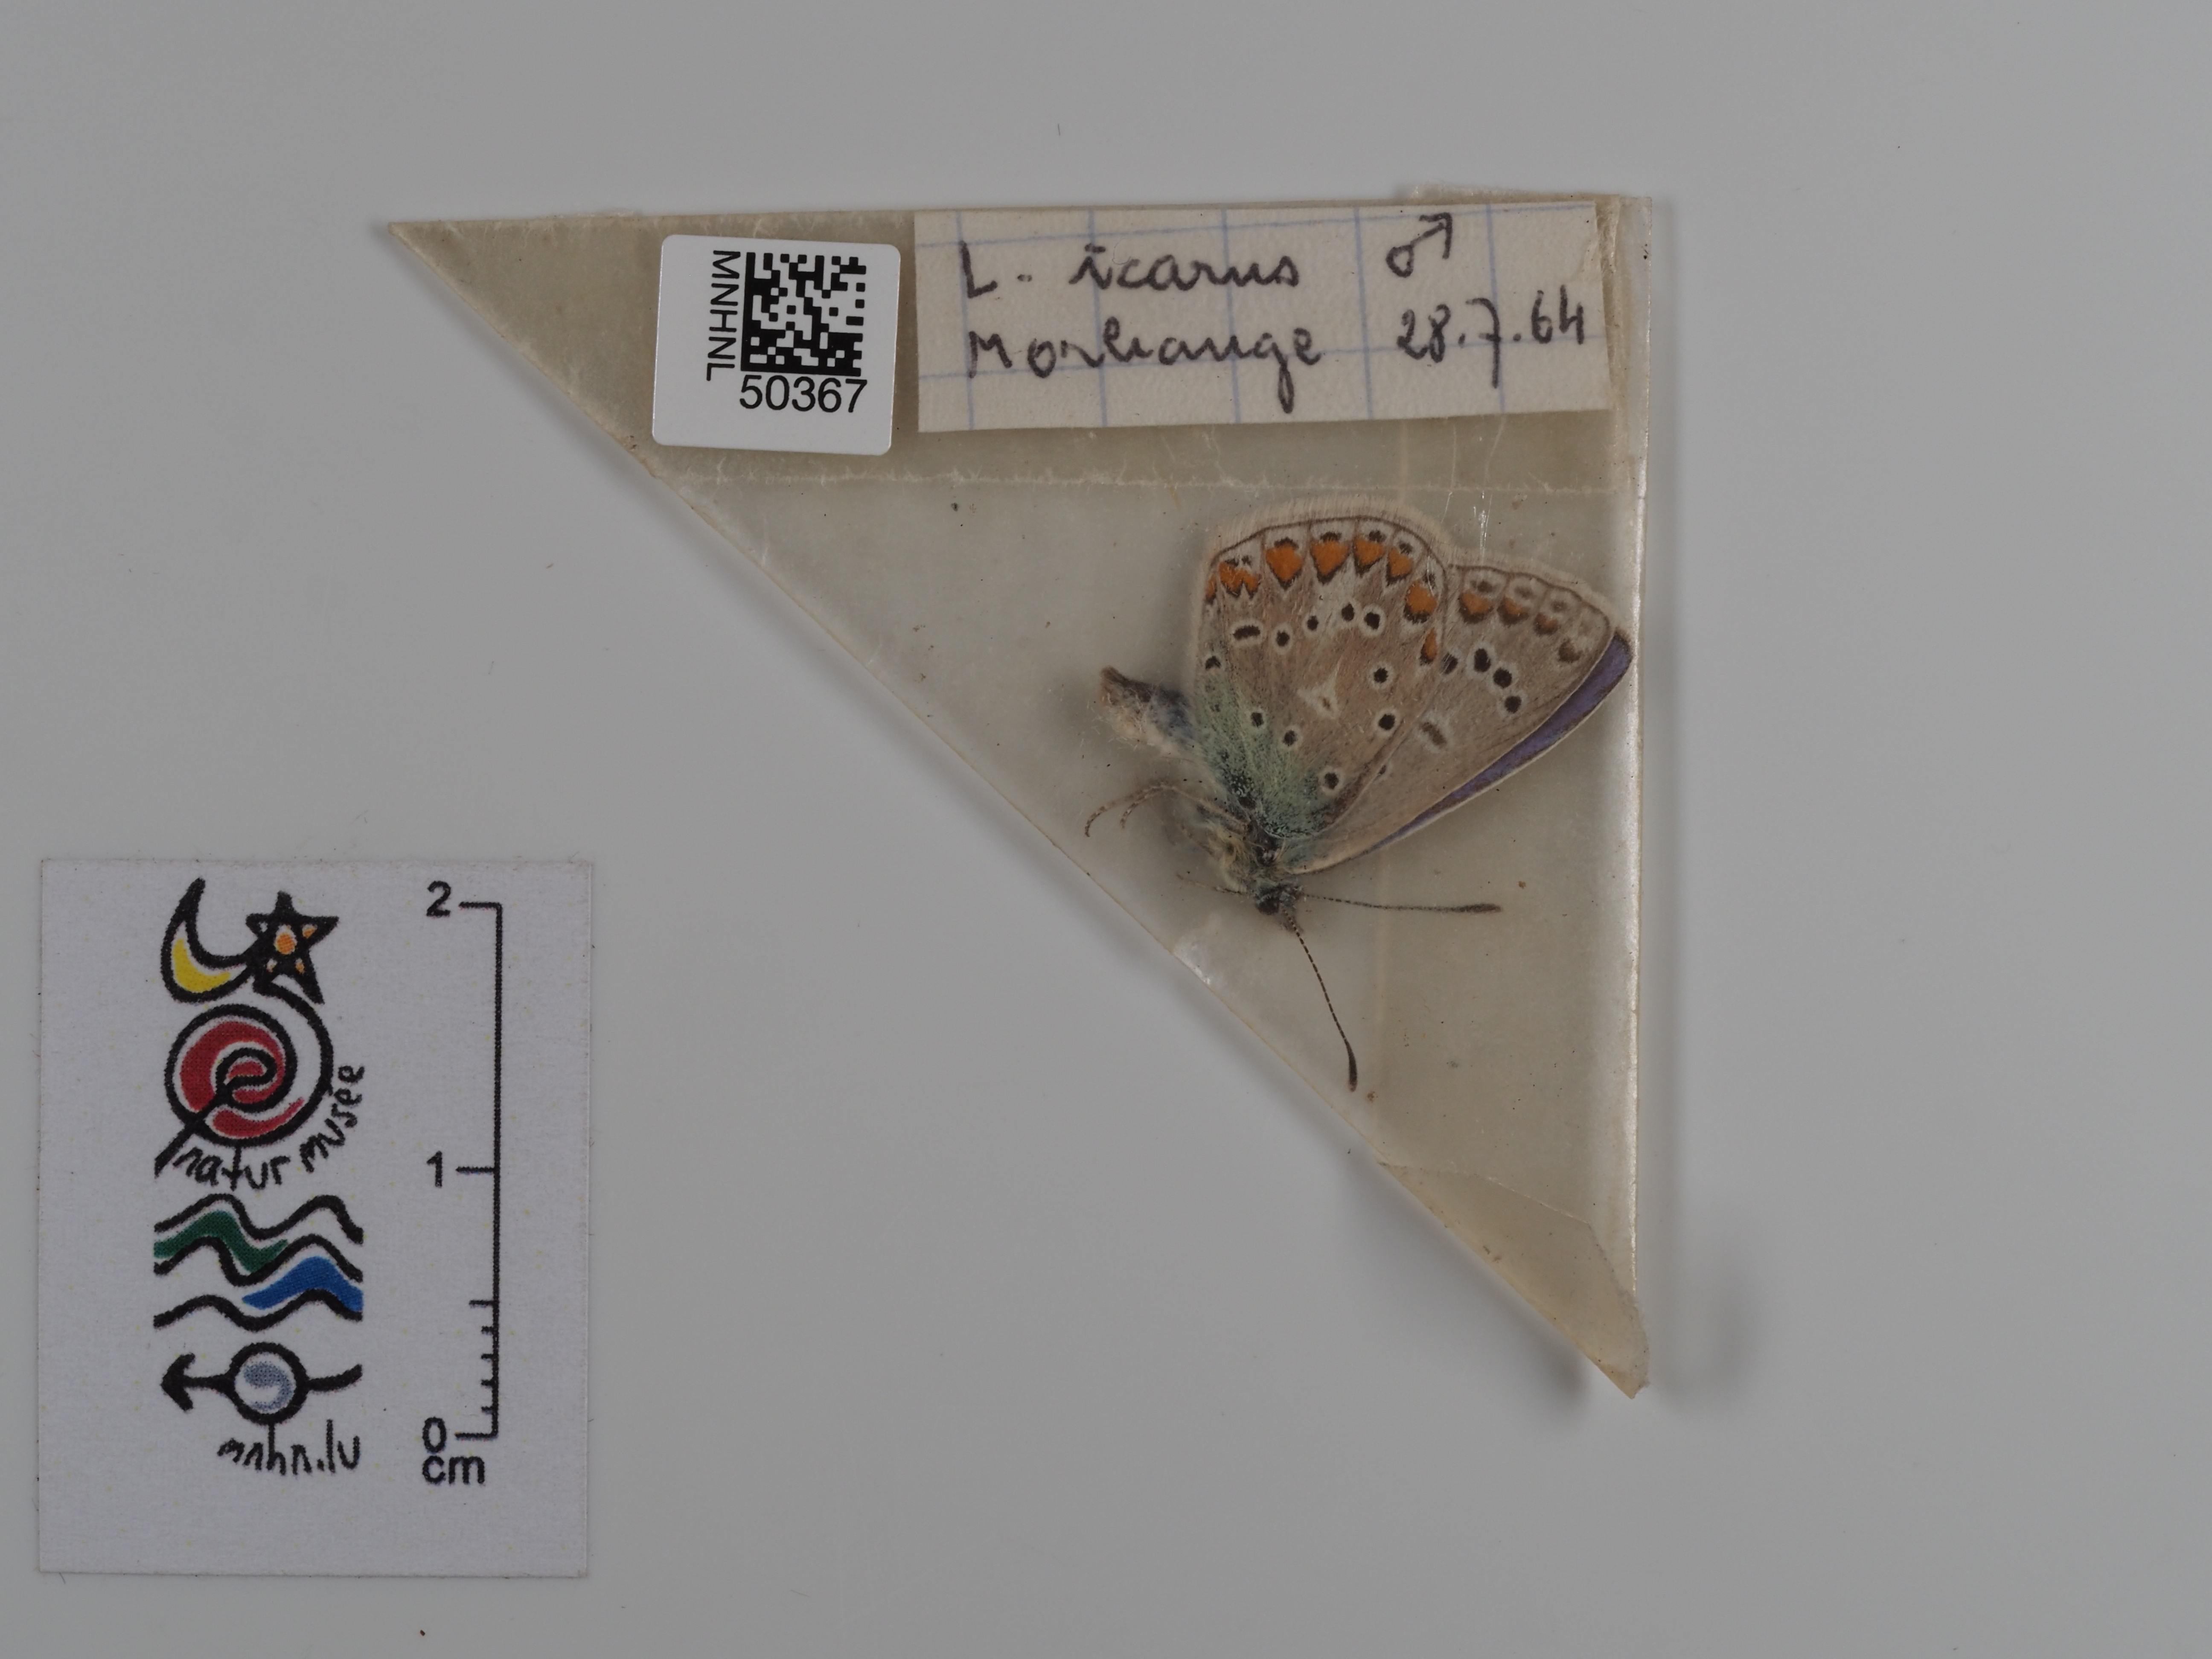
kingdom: Animalia
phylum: Arthropoda
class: Insecta
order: Lepidoptera
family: Lycaenidae
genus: Polyommatus
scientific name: Polyommatus icarus
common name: Common blue
